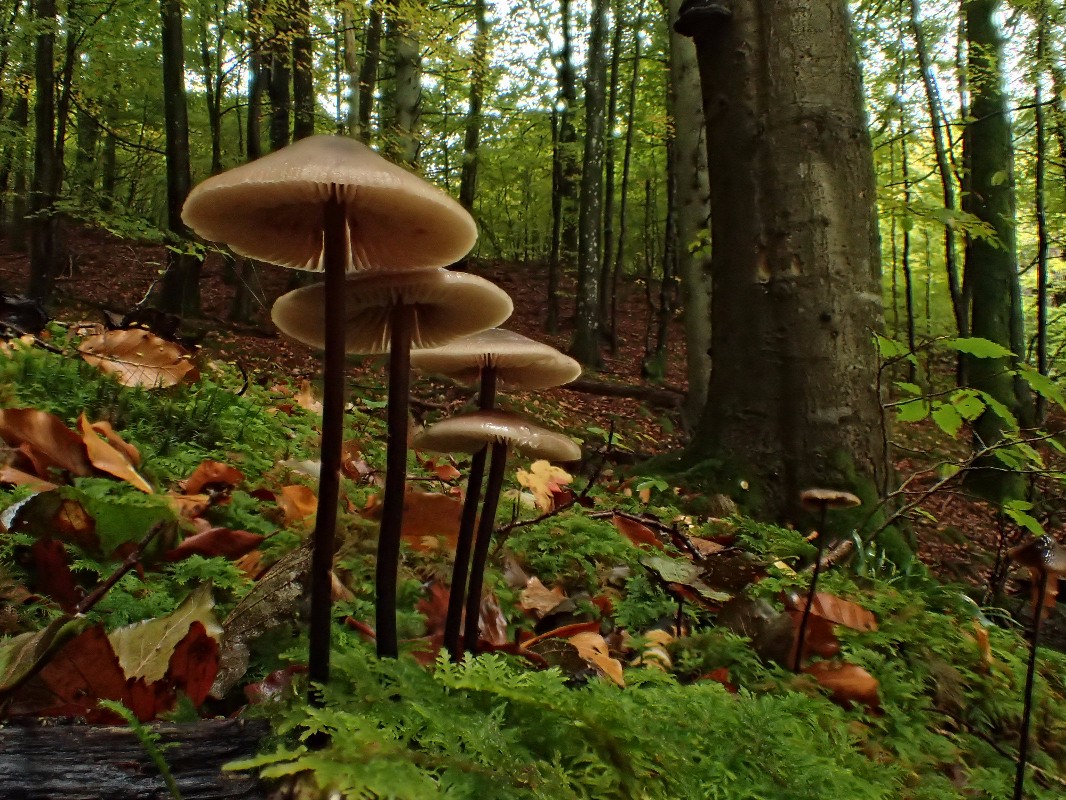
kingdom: Fungi
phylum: Basidiomycota
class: Agaricomycetes
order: Agaricales
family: Omphalotaceae
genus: Mycetinis
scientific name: Mycetinis alliaceus
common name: stor løghat
